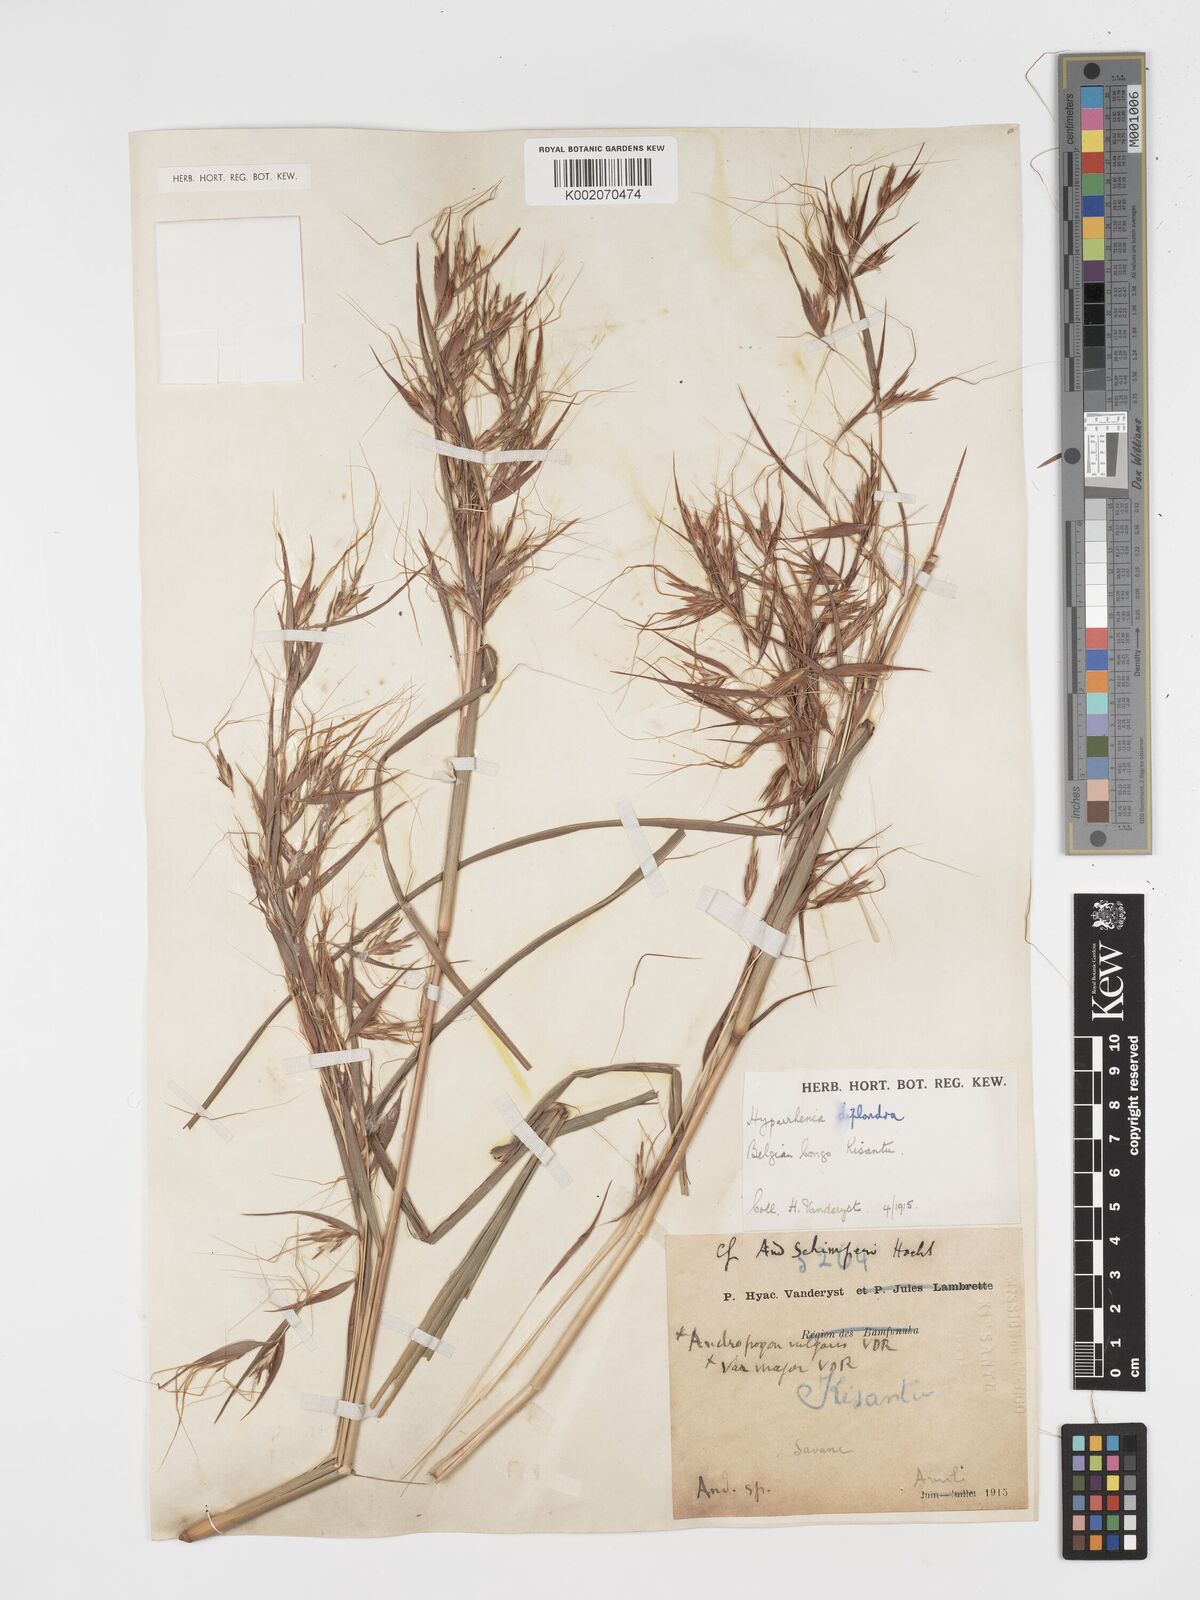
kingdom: Plantae
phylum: Tracheophyta
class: Liliopsida
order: Poales
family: Poaceae
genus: Hyparrhenia
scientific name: Hyparrhenia diplandra
